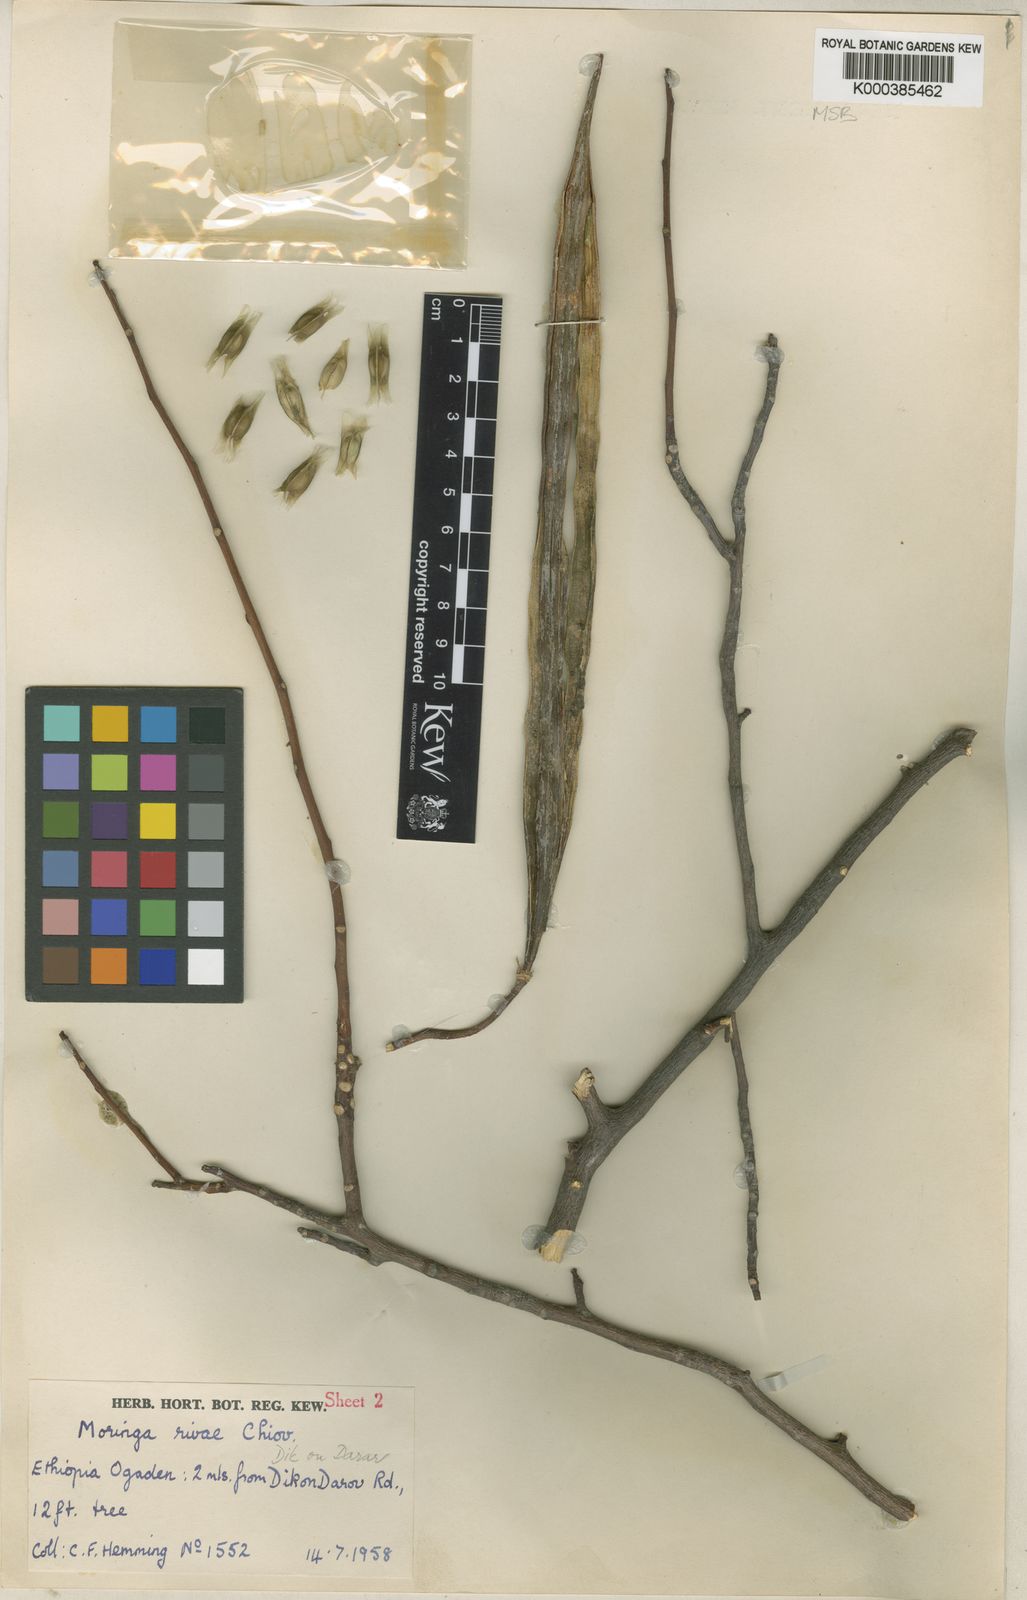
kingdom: Plantae
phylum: Tracheophyta
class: Magnoliopsida
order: Brassicales
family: Moringaceae
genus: Moringa
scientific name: Moringa rivae
